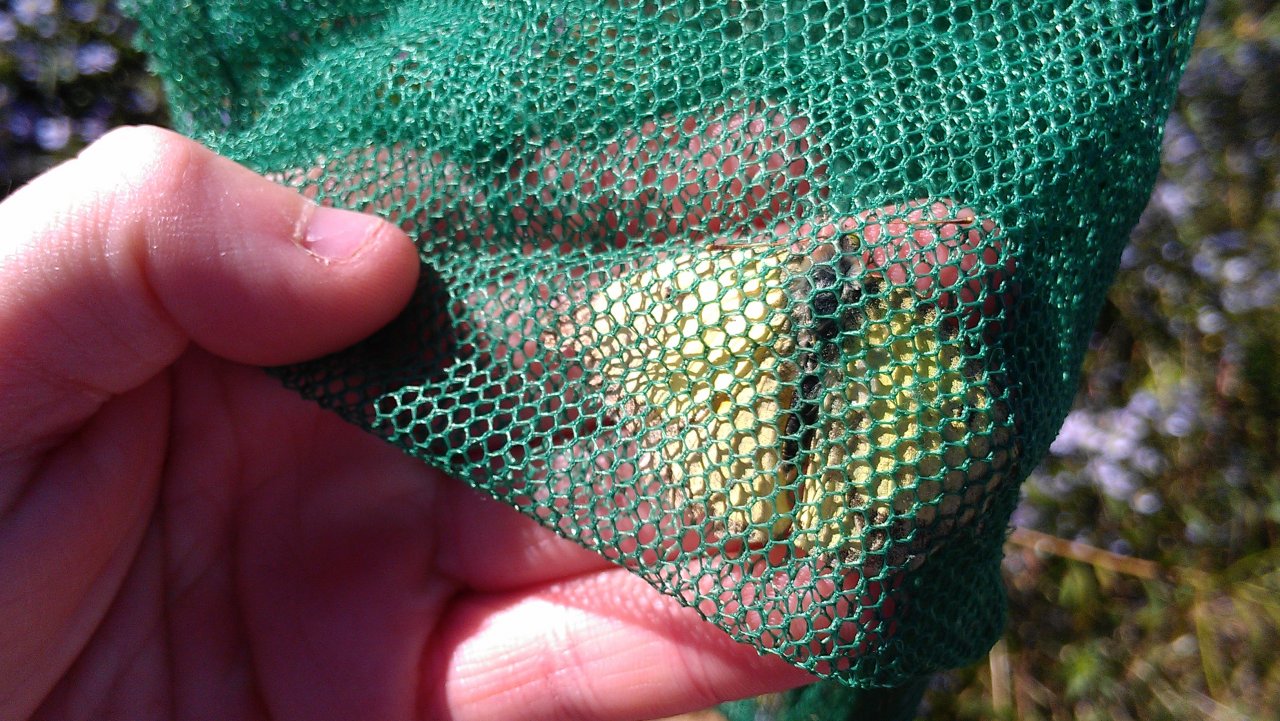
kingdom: Animalia
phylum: Arthropoda
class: Insecta
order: Lepidoptera
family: Pieridae
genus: Colias
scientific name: Colias philodice
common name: Clouded Sulphur
